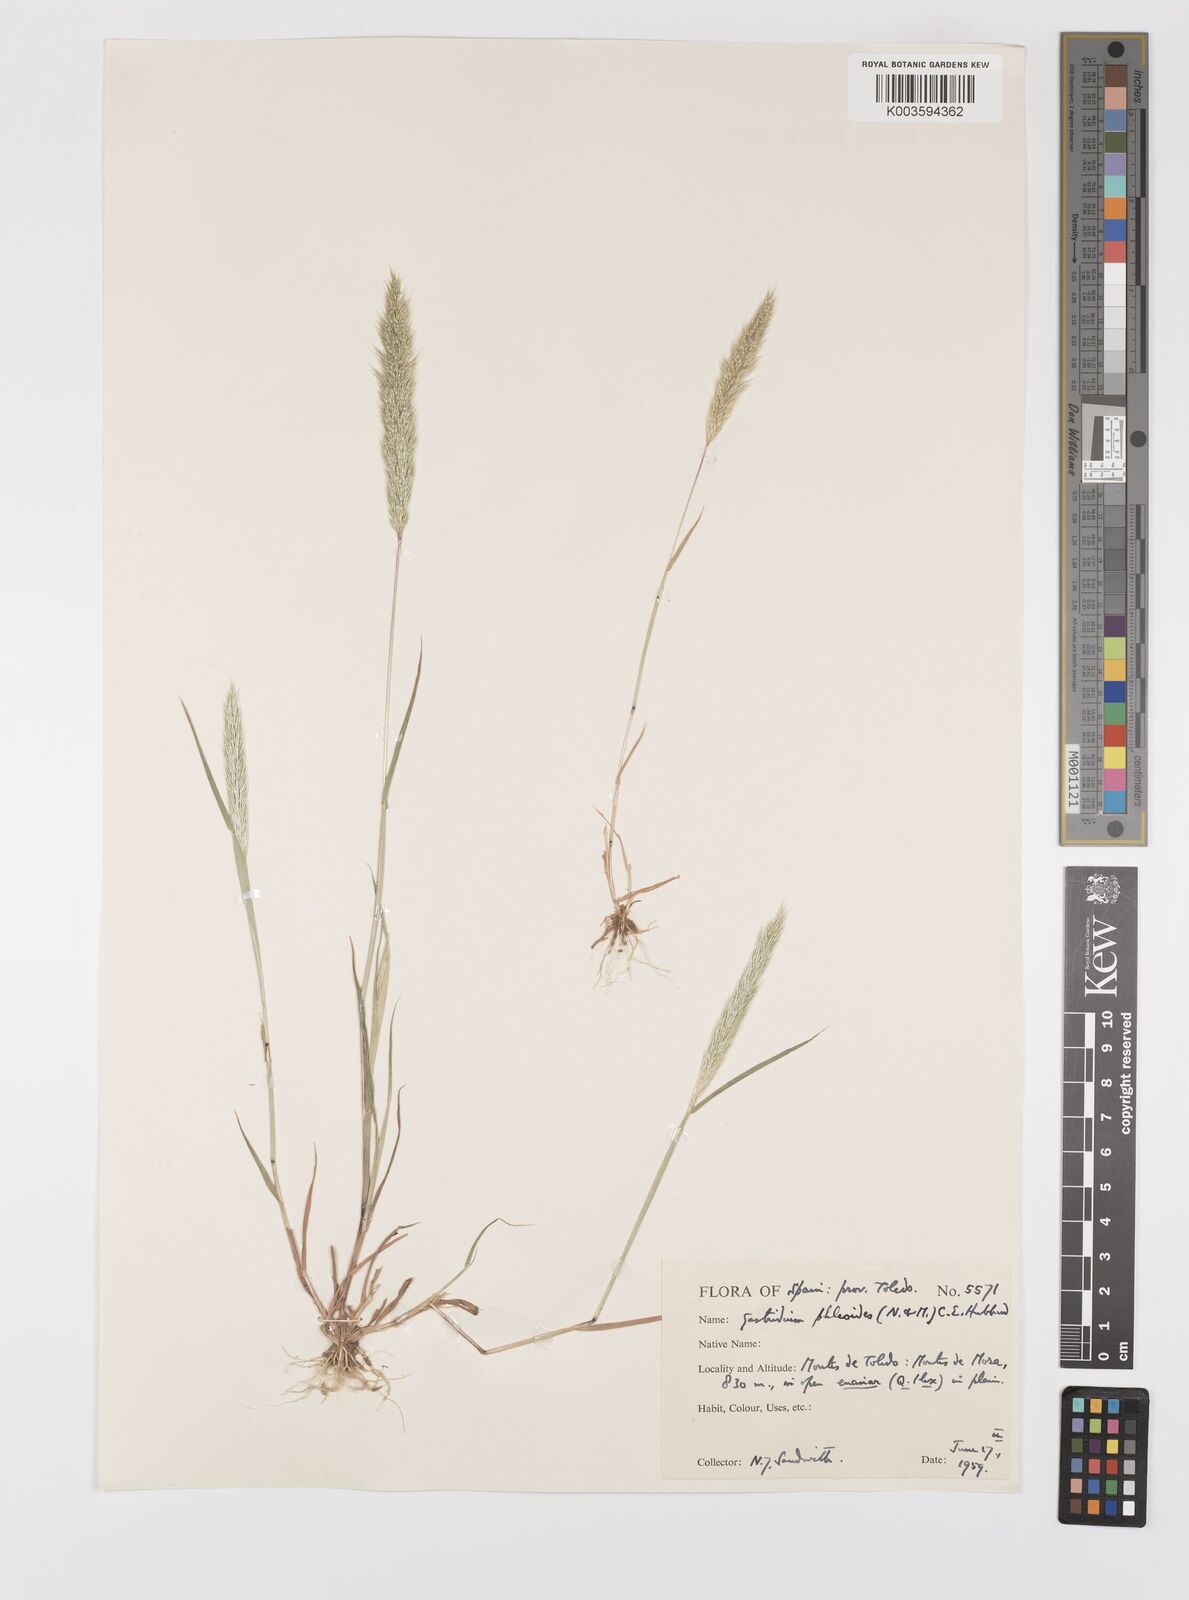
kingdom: Plantae
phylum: Tracheophyta
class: Liliopsida
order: Poales
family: Poaceae
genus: Gastridium
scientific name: Gastridium phleoides
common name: Nit grass
